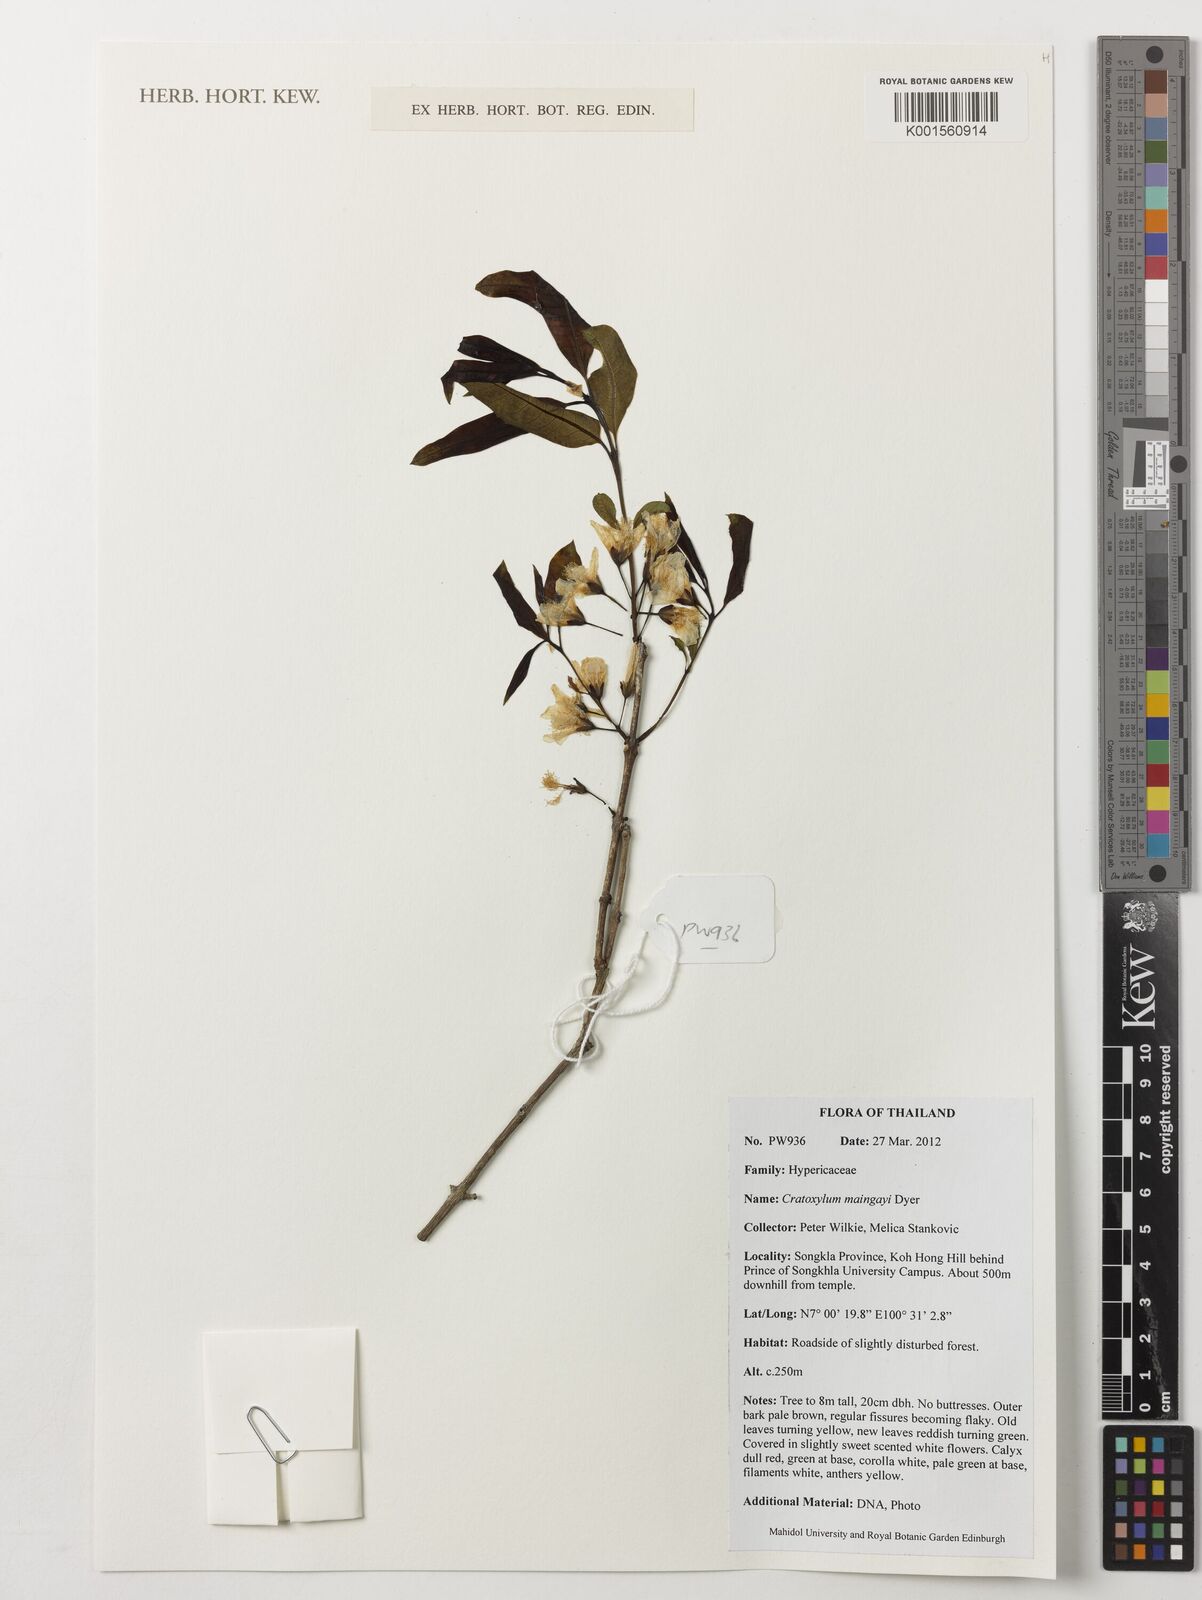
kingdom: Plantae
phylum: Tracheophyta
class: Magnoliopsida
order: Malpighiales
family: Hypericaceae
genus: Cratoxylum
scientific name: Cratoxylum maingayi
